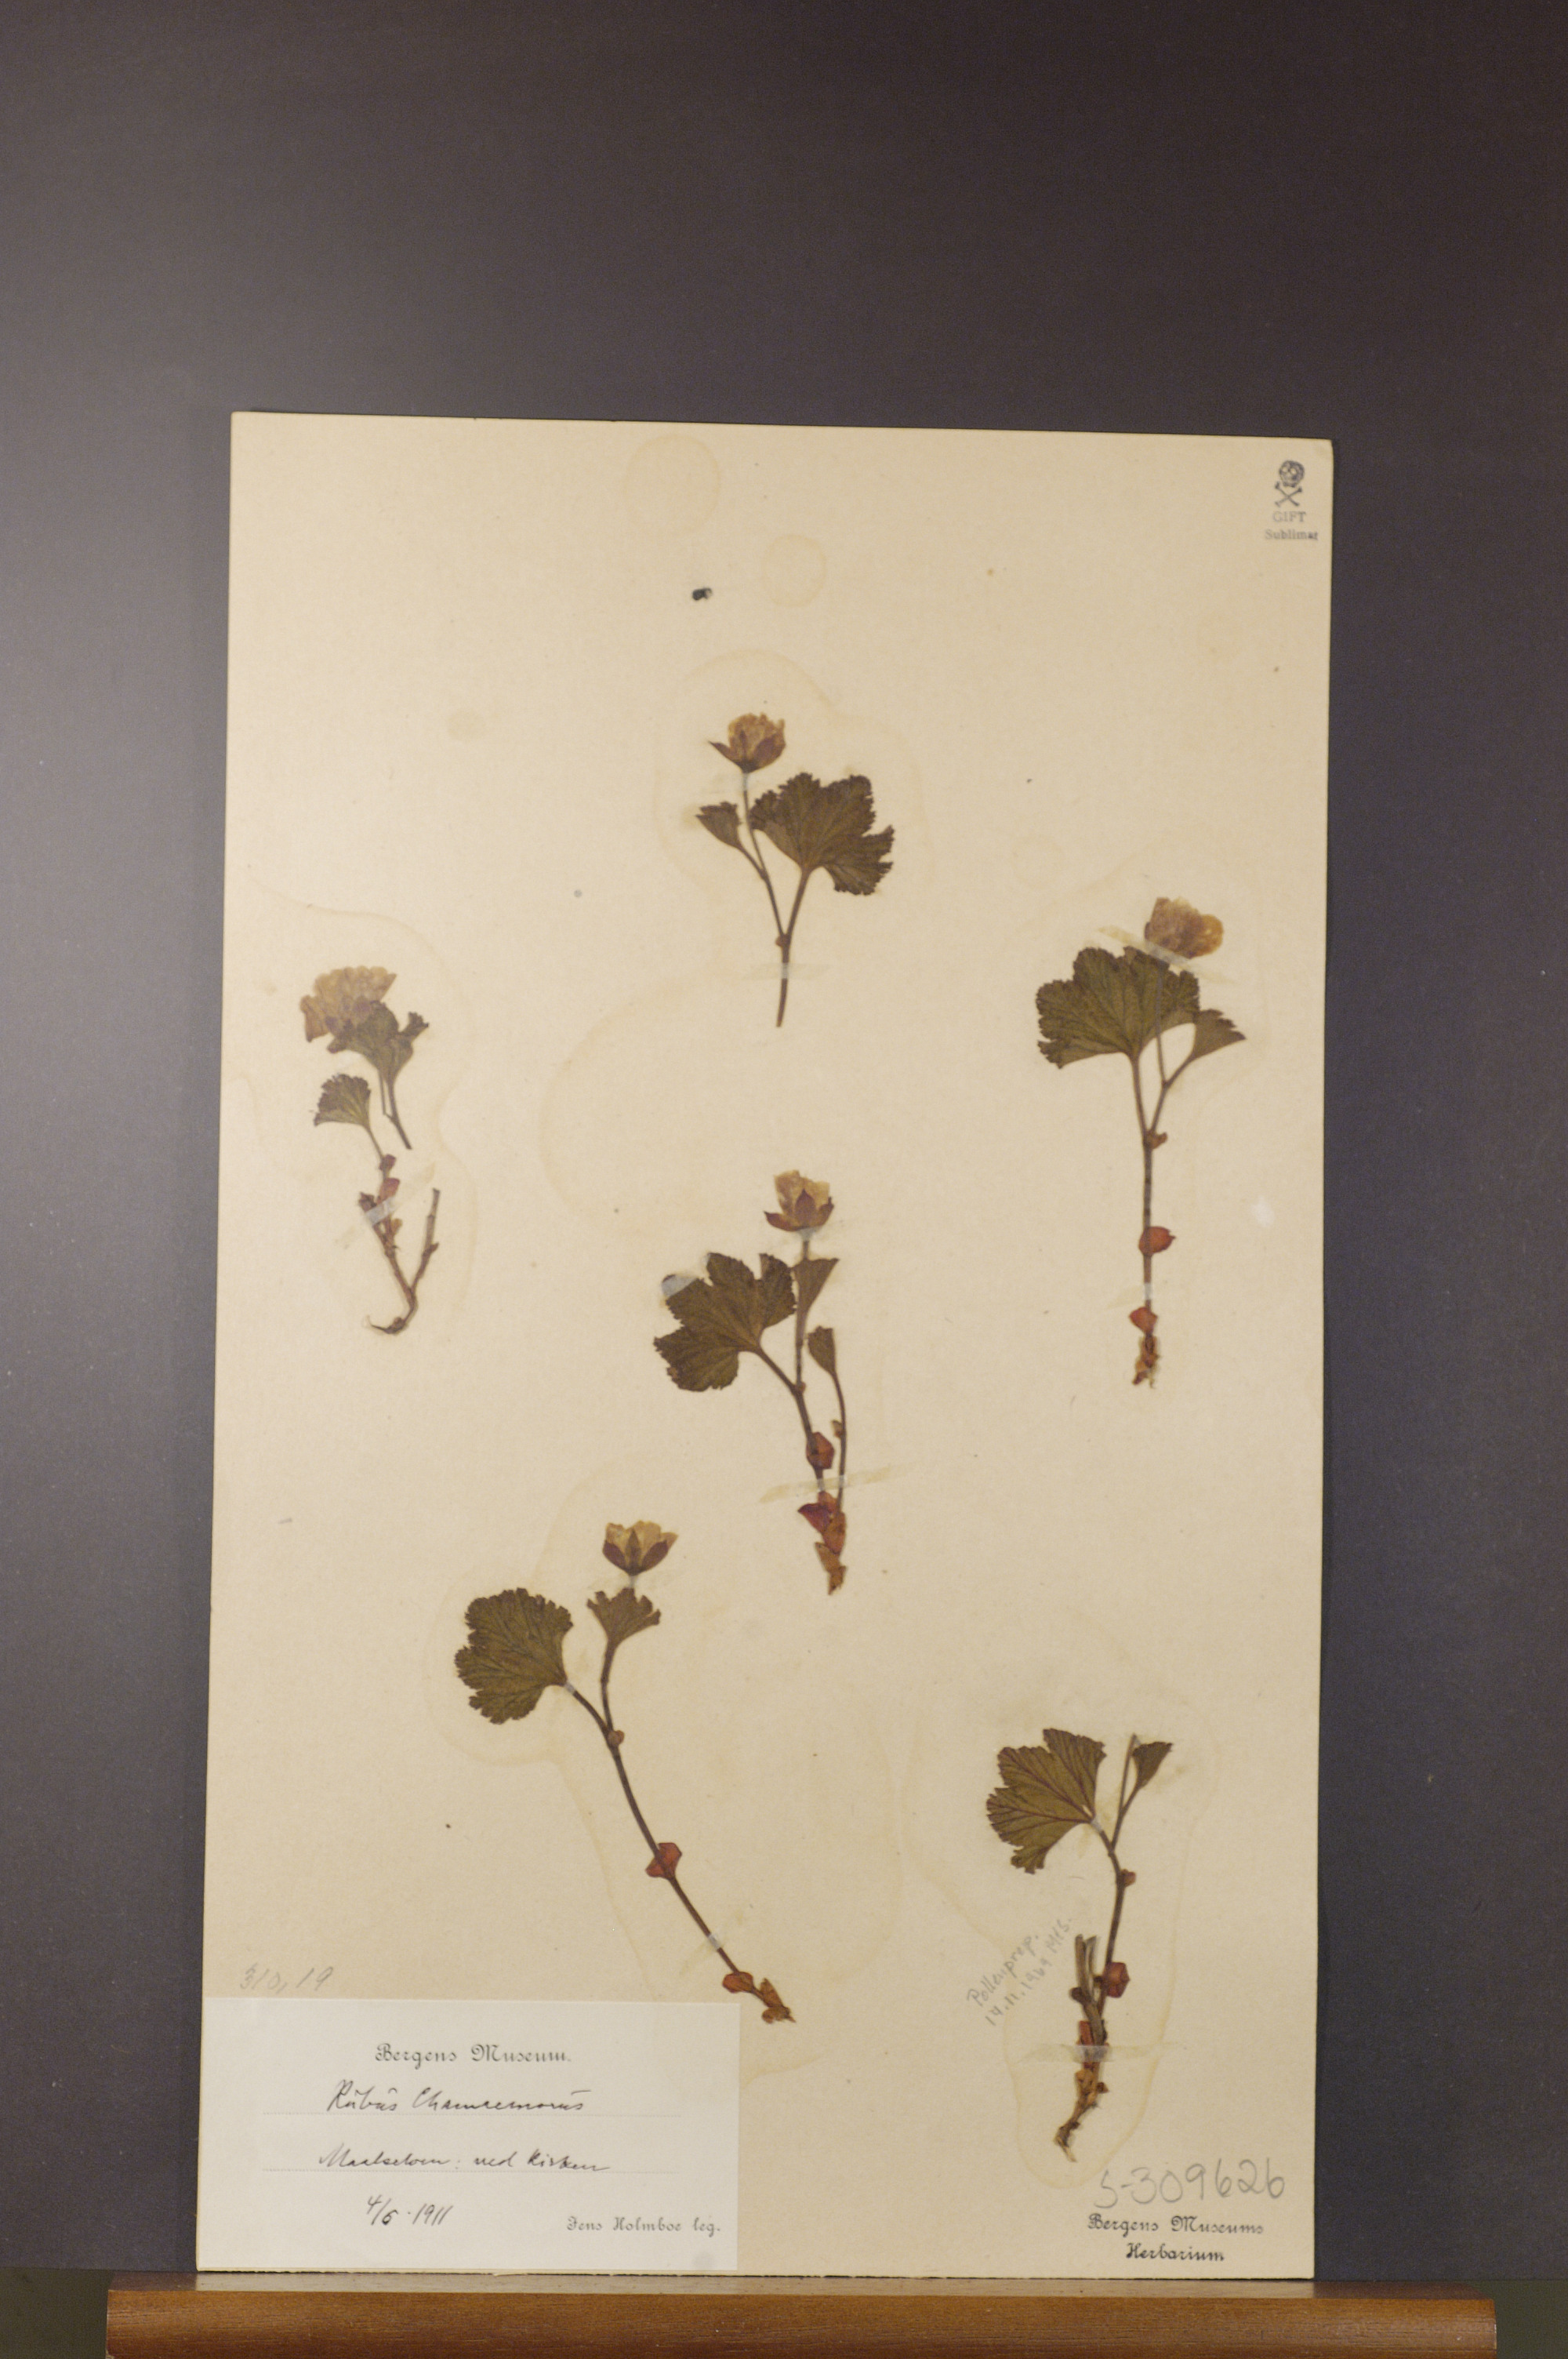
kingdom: Plantae
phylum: Tracheophyta
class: Magnoliopsida
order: Rosales
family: Rosaceae
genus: Rubus
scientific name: Rubus chamaemorus
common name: Cloudberry
